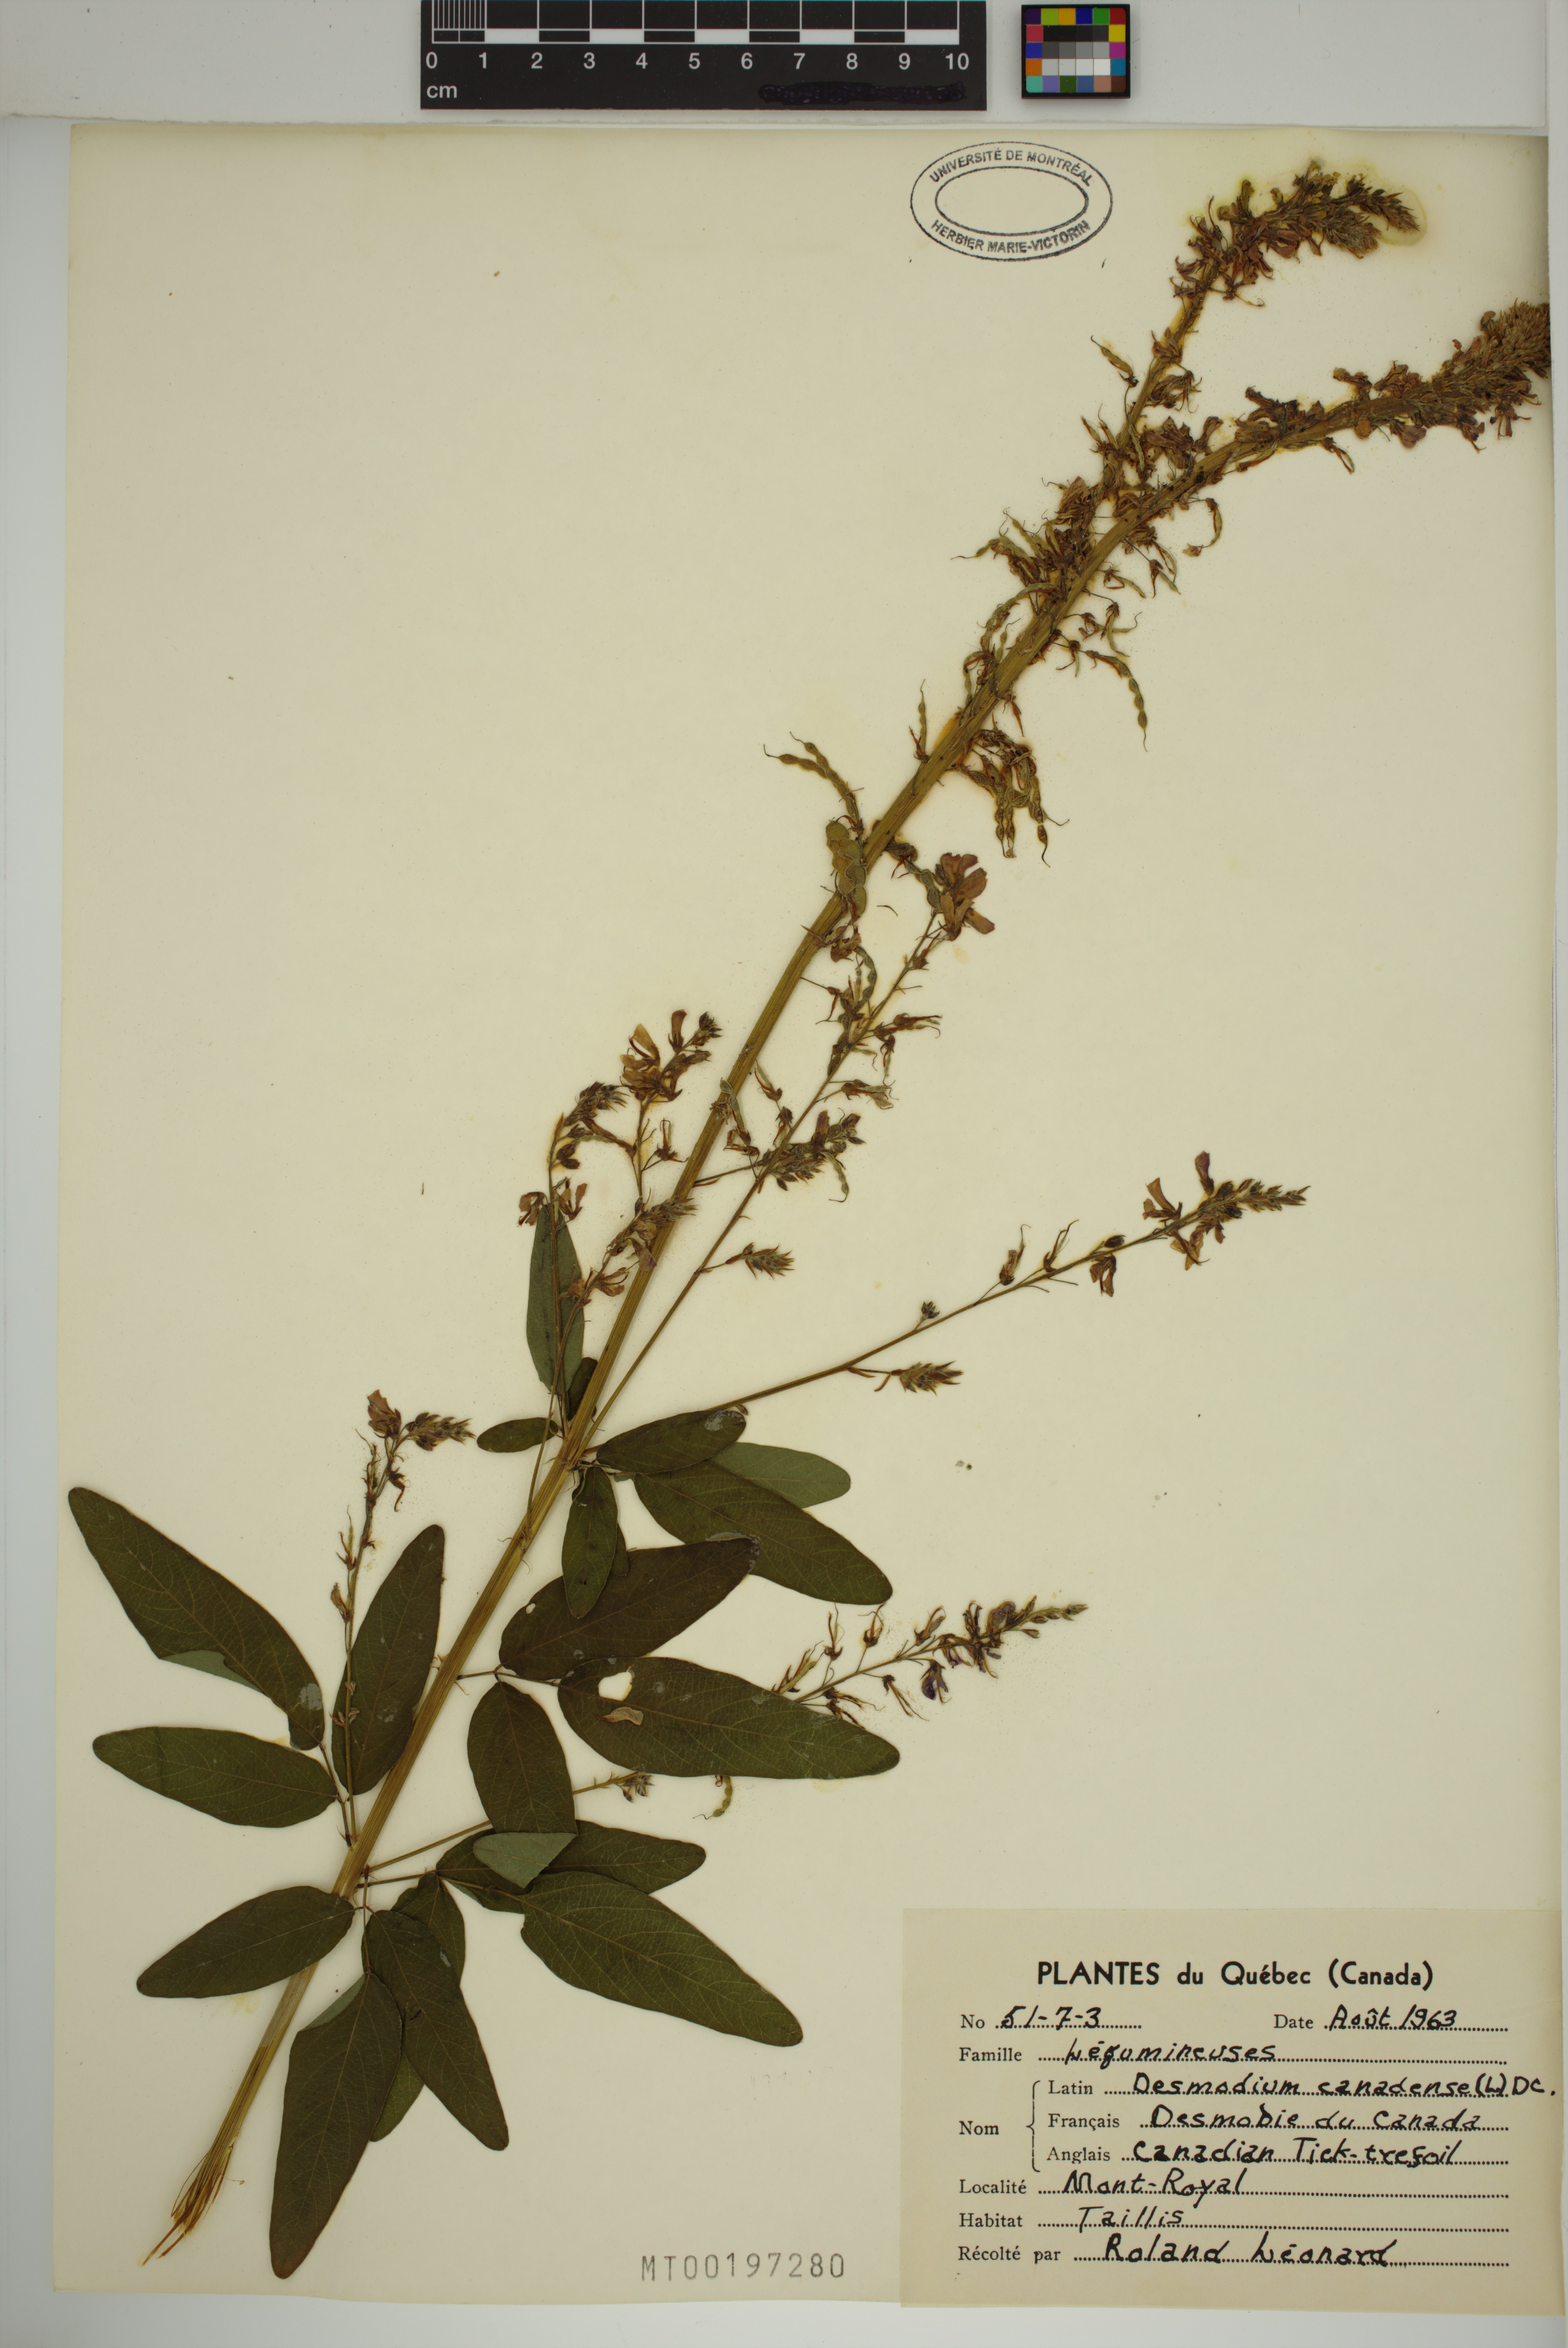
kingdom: Plantae
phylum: Tracheophyta
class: Magnoliopsida
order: Fabales
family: Fabaceae
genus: Desmodium
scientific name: Desmodium canadense
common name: Canada tick-trefoil
